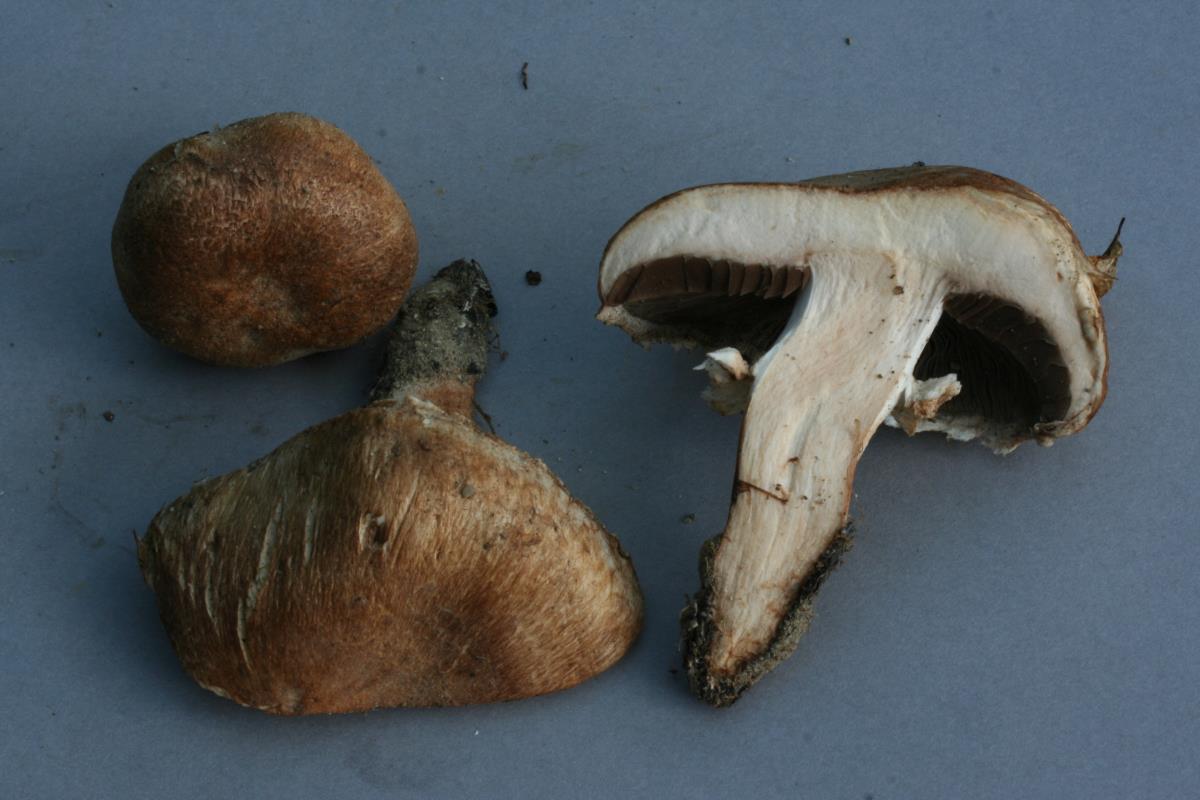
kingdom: Fungi
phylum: Basidiomycota
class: Agaricomycetes
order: Agaricales
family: Agaricaceae
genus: Agaricus
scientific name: Agaricus bisporus
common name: Cultivated mushroom
